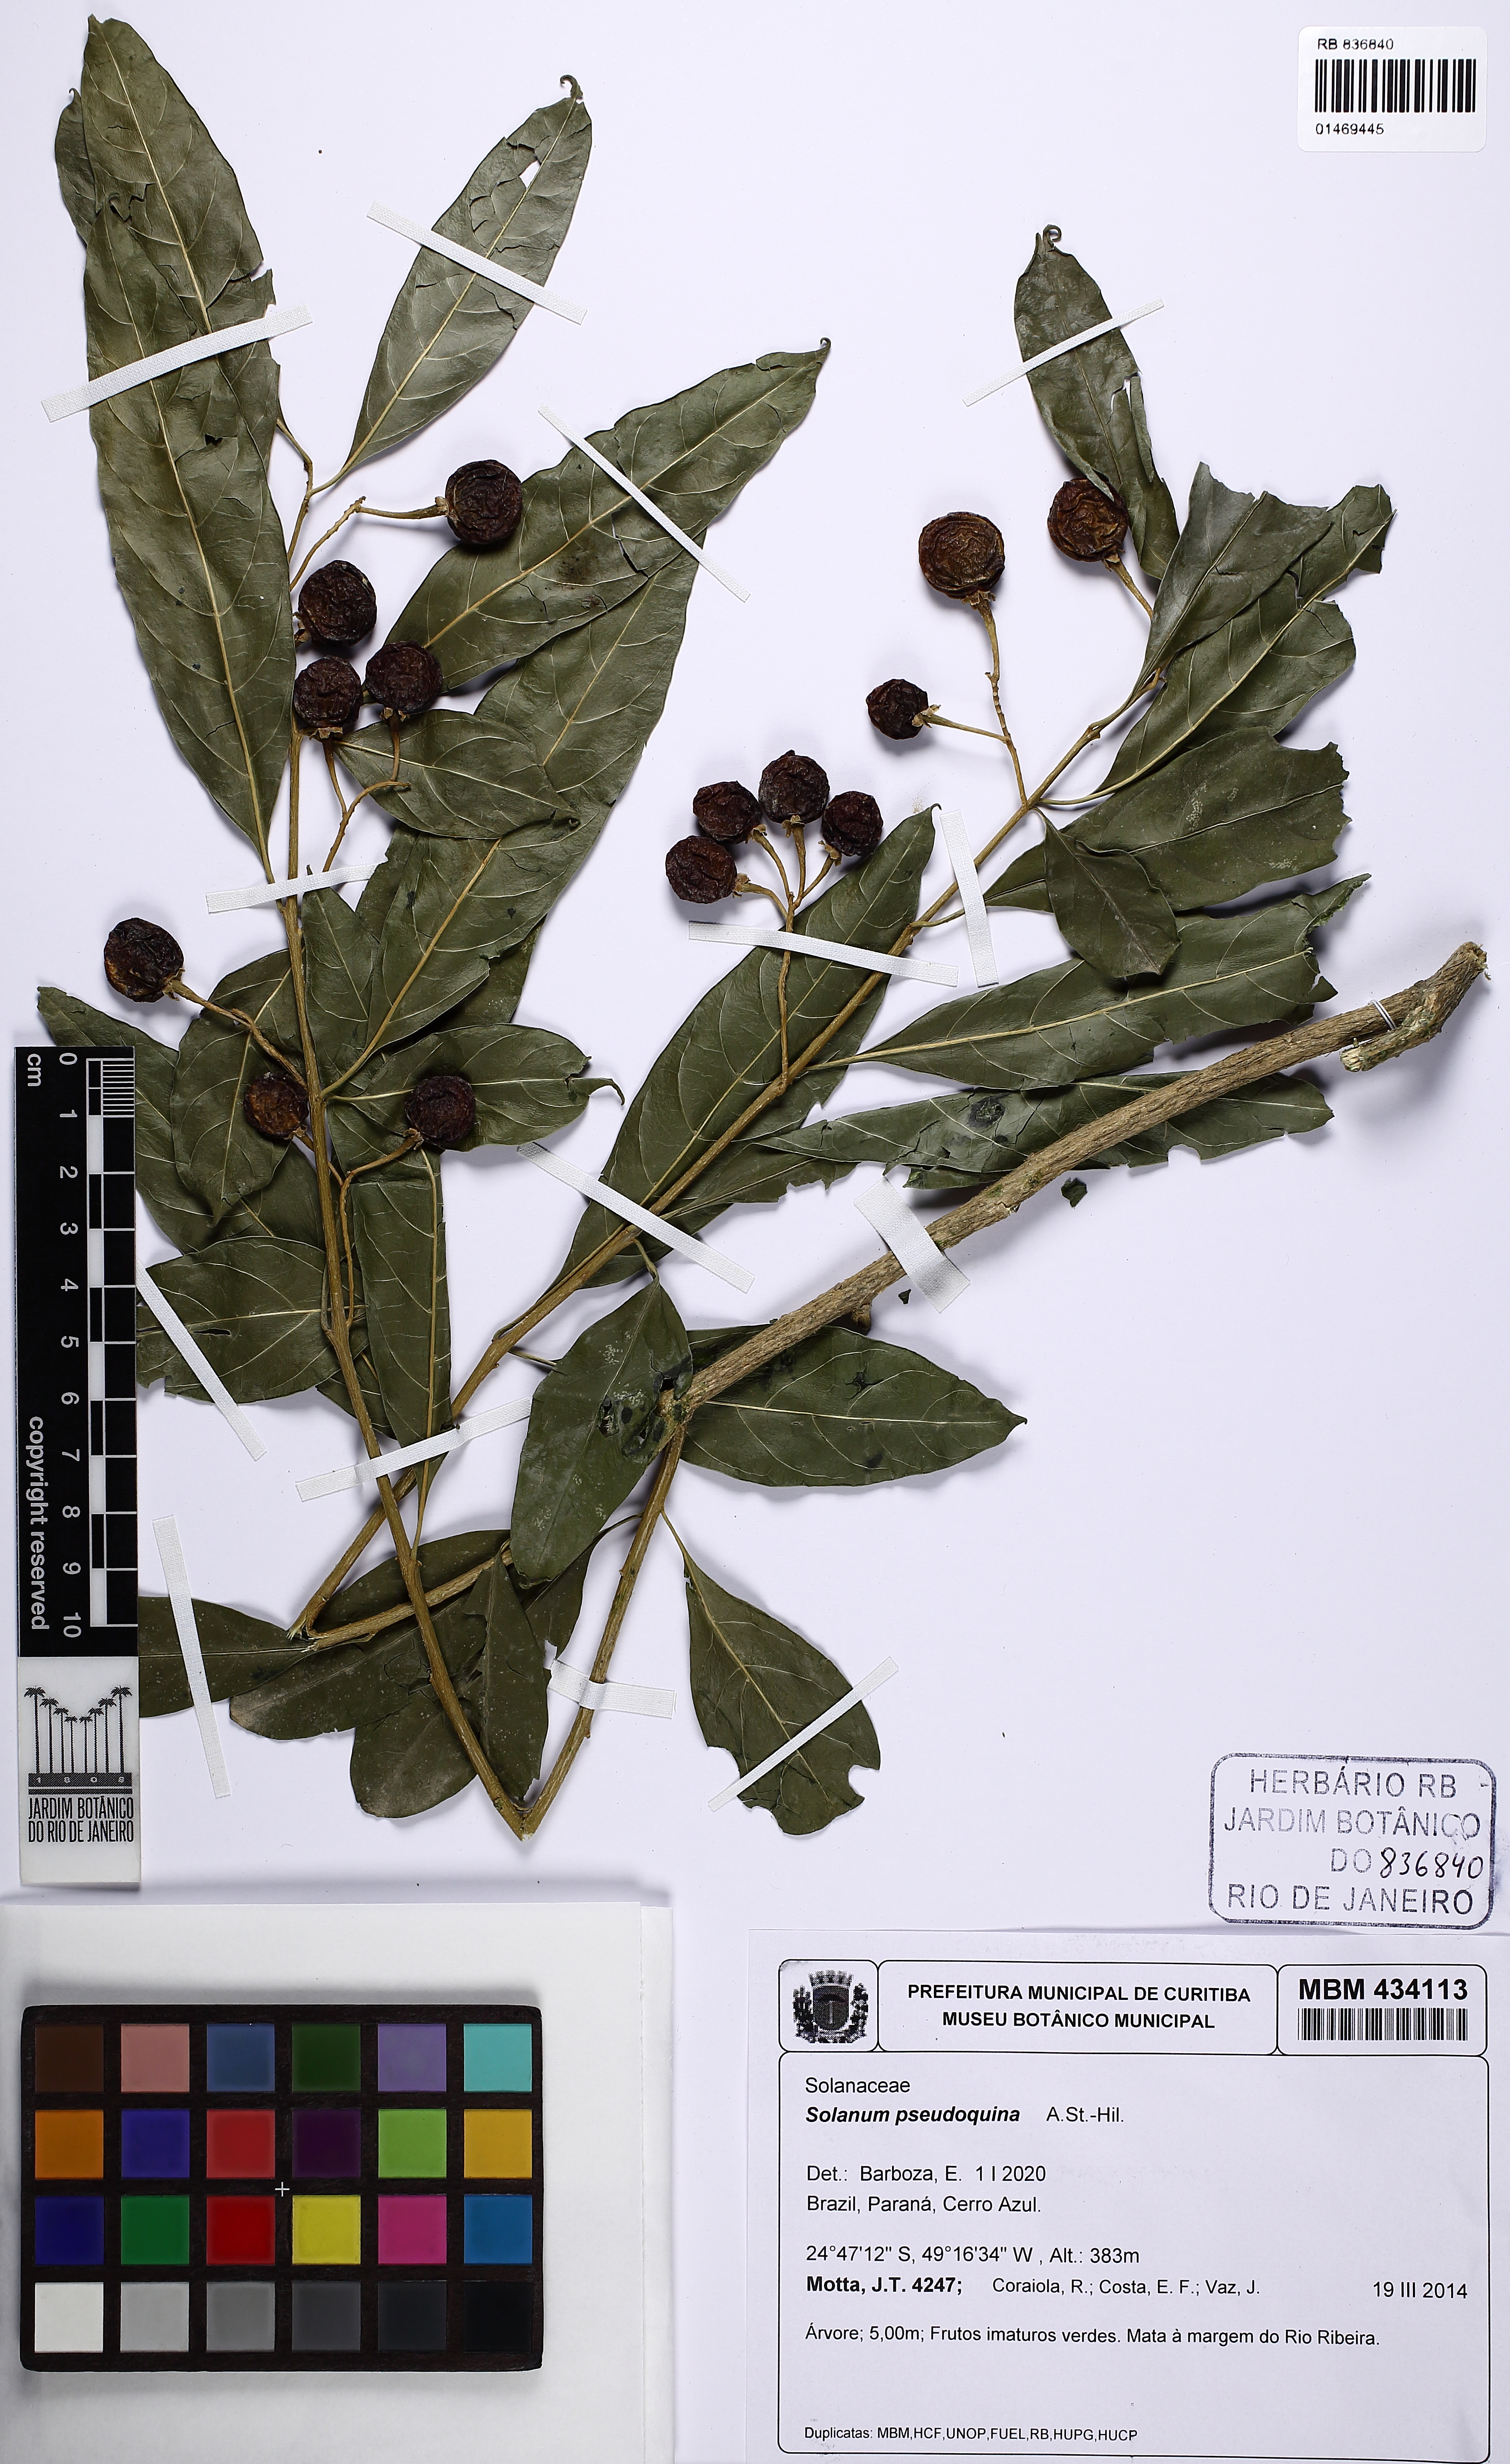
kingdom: Plantae
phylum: Tracheophyta
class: Magnoliopsida
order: Solanales
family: Solanaceae
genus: Solanum
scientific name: Solanum pseudoquina
